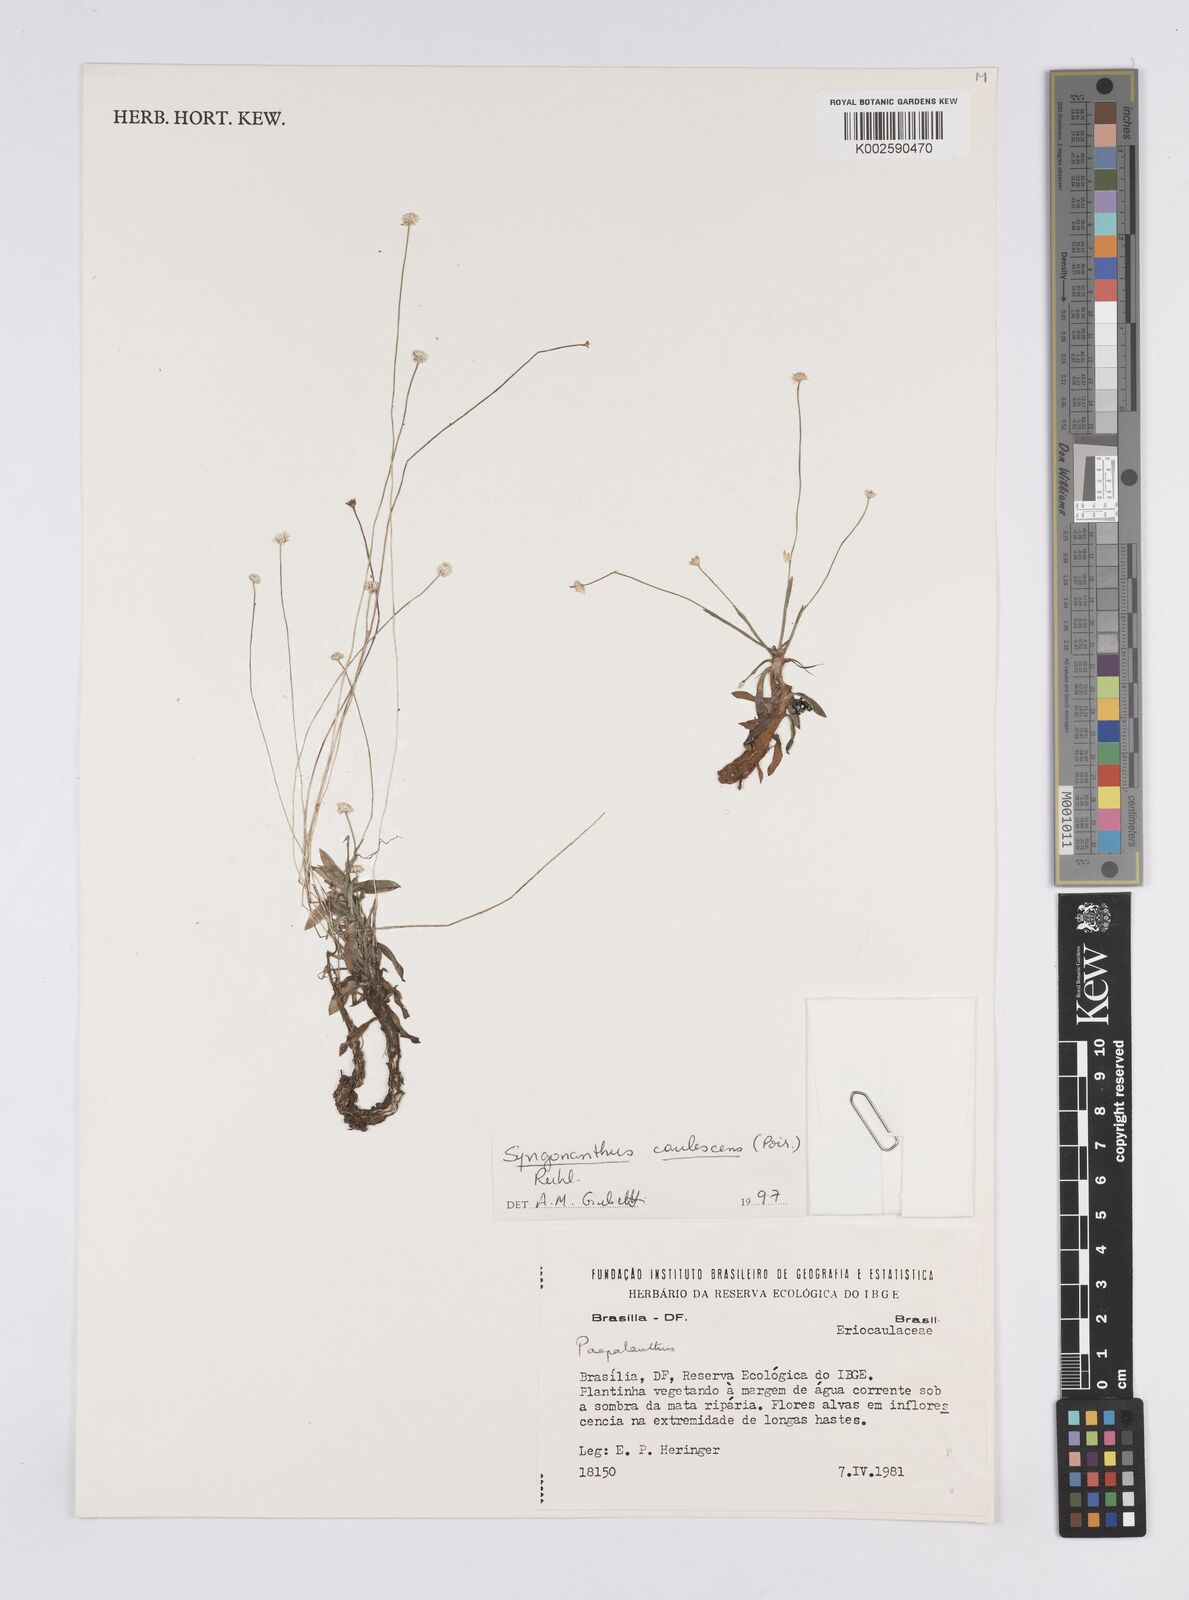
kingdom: Plantae
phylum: Tracheophyta
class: Liliopsida
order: Poales
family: Eriocaulaceae
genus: Syngonanthus
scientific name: Syngonanthus caulescens
